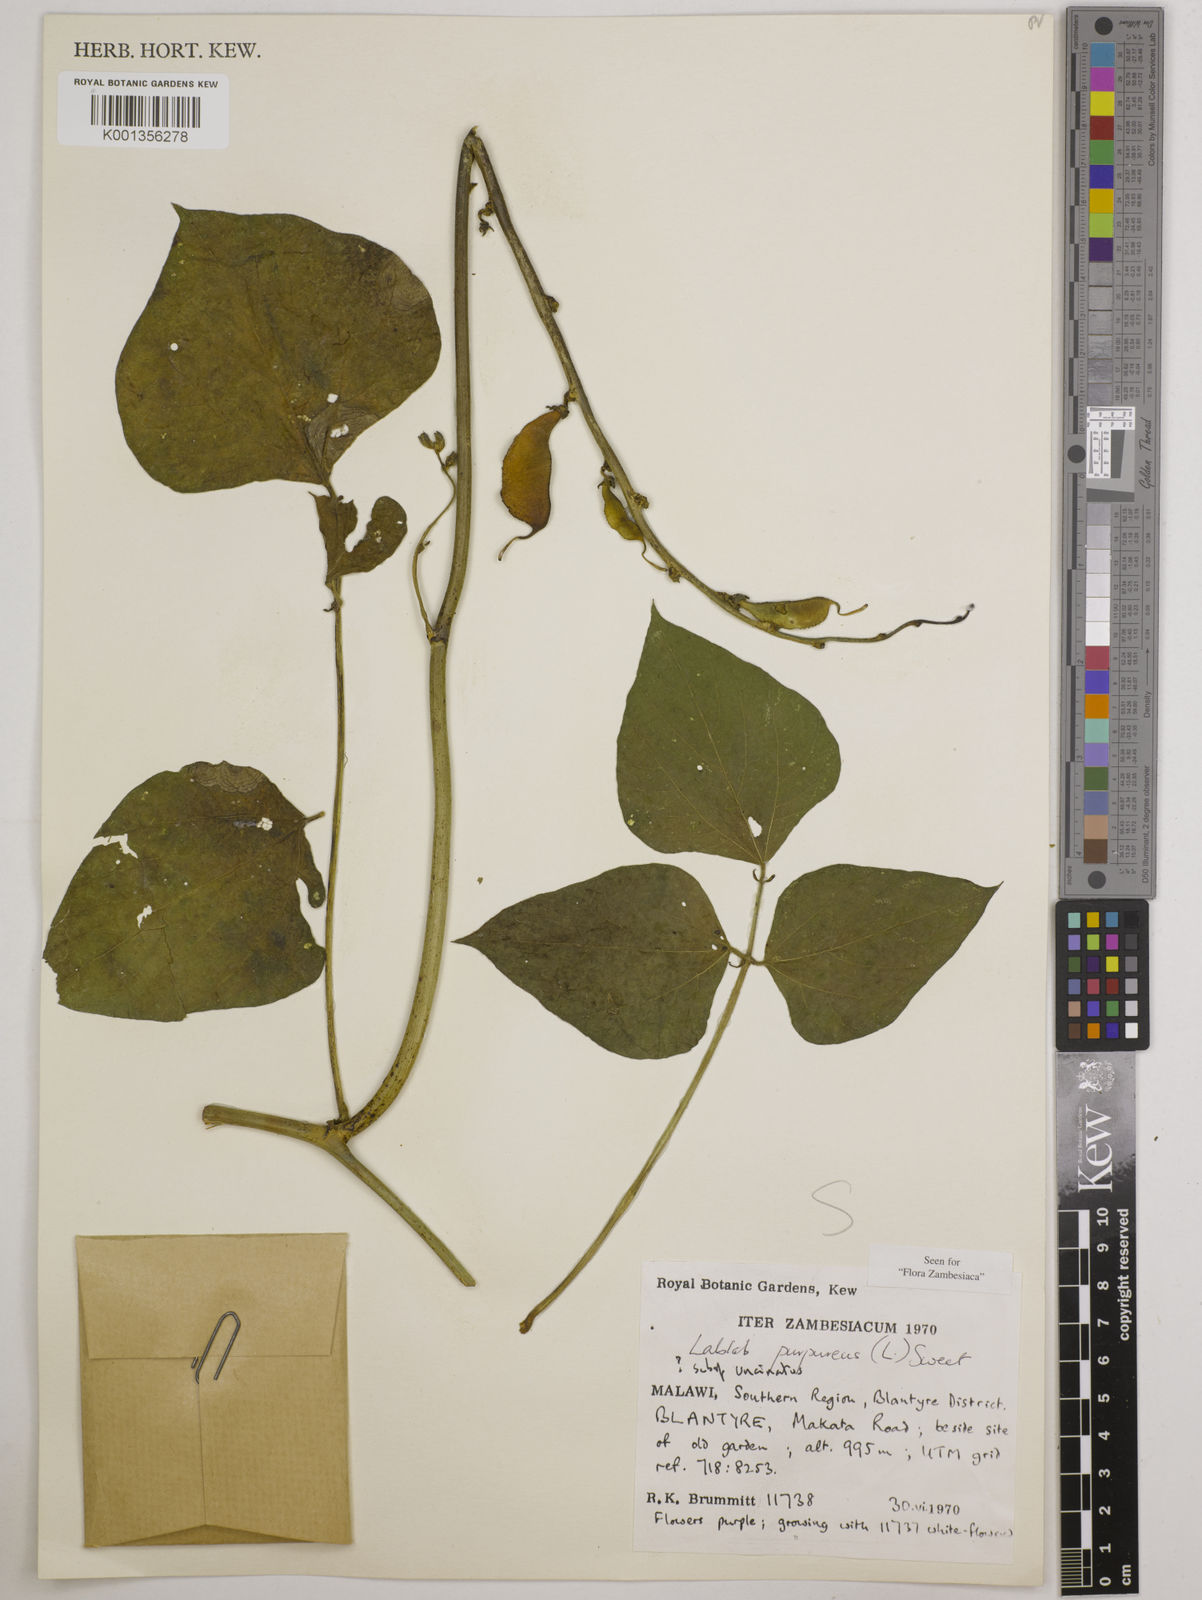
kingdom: Plantae
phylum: Tracheophyta
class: Magnoliopsida
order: Fabales
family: Fabaceae
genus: Lablab
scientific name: Lablab
